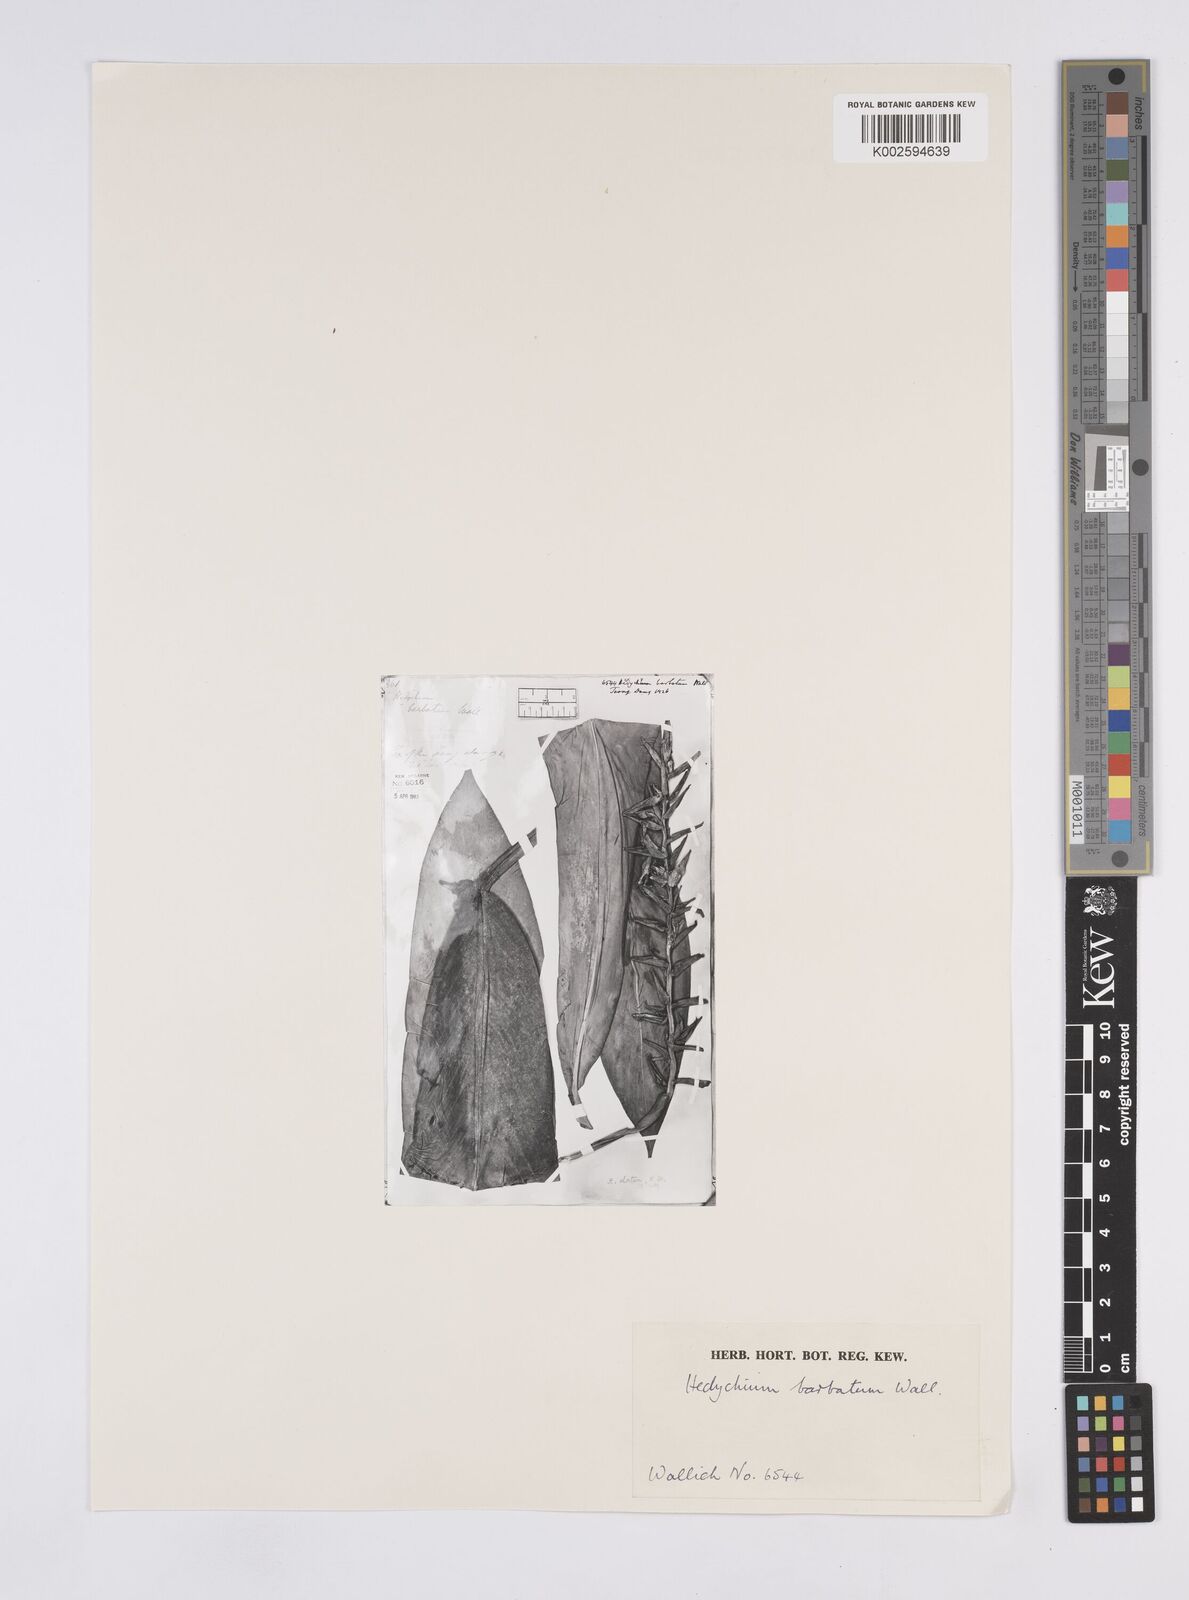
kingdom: Plantae
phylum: Tracheophyta
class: Liliopsida
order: Zingiberales
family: Zingiberaceae
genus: Hedychium
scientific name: Hedychium stenopetalum
